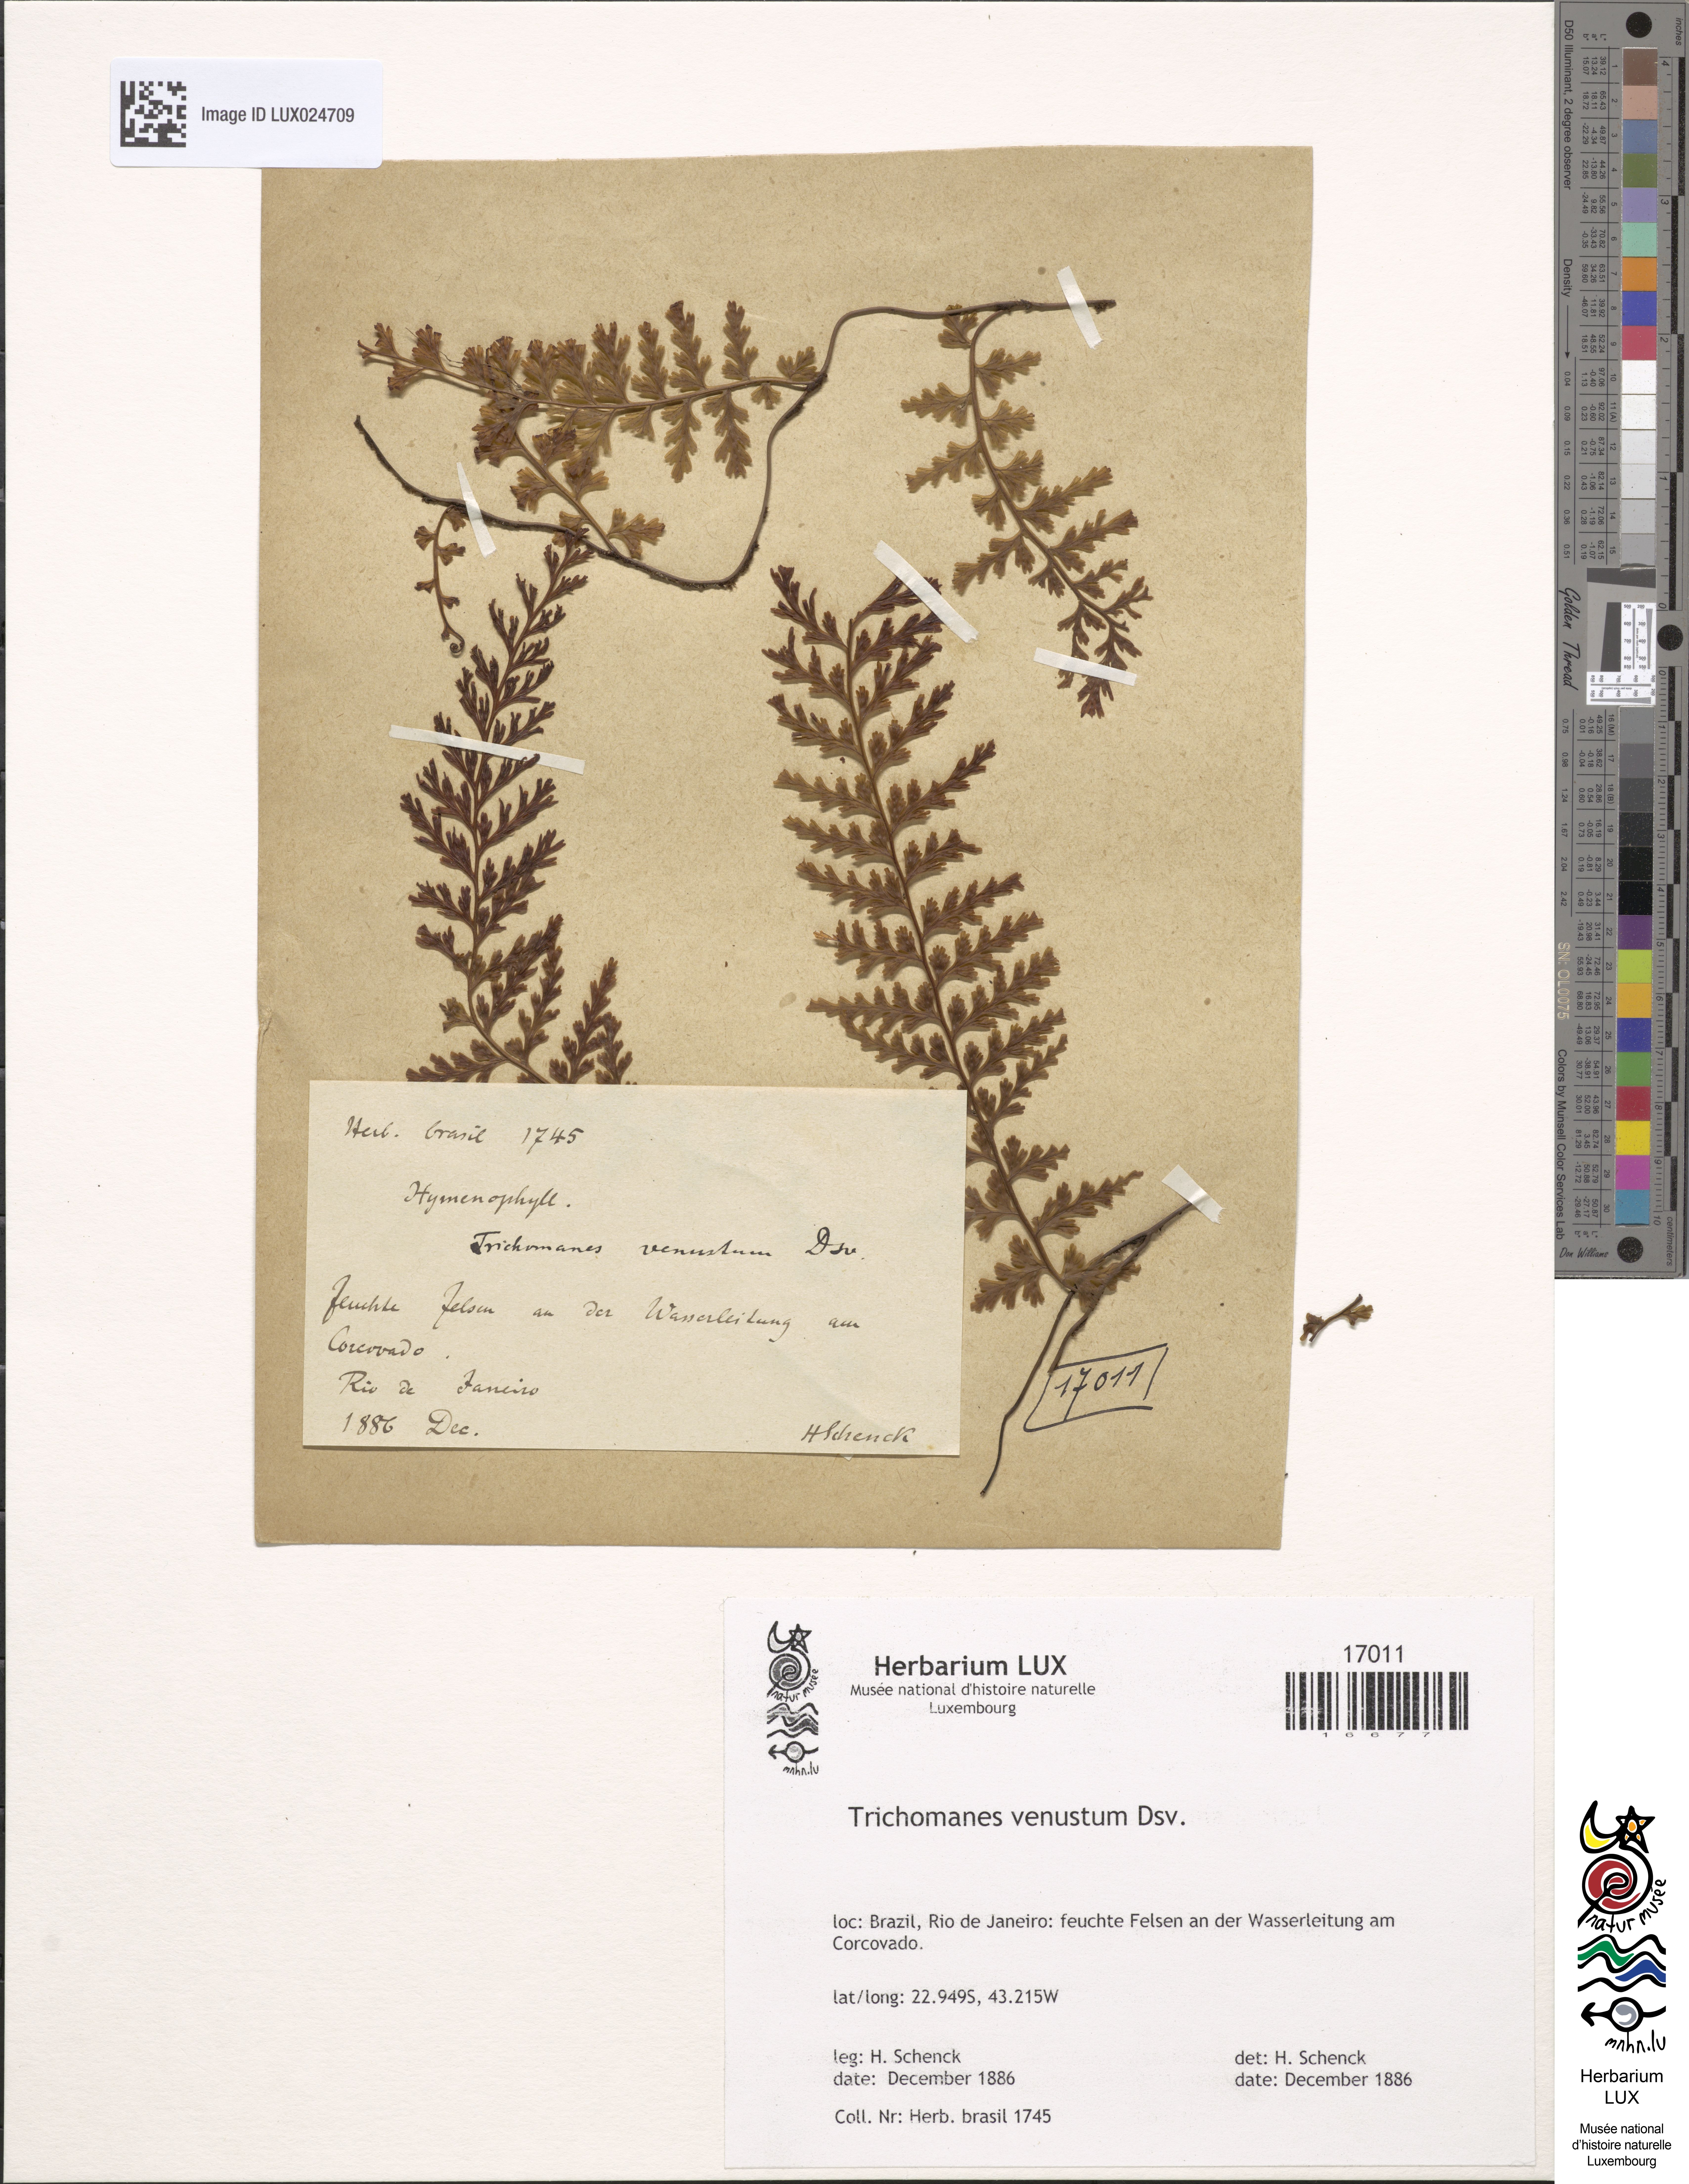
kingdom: Plantae
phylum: Tracheophyta
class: Polypodiopsida
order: Hymenophyllales
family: Hymenophyllaceae
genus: Vandenboschia
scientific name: Vandenboschia rupestris
